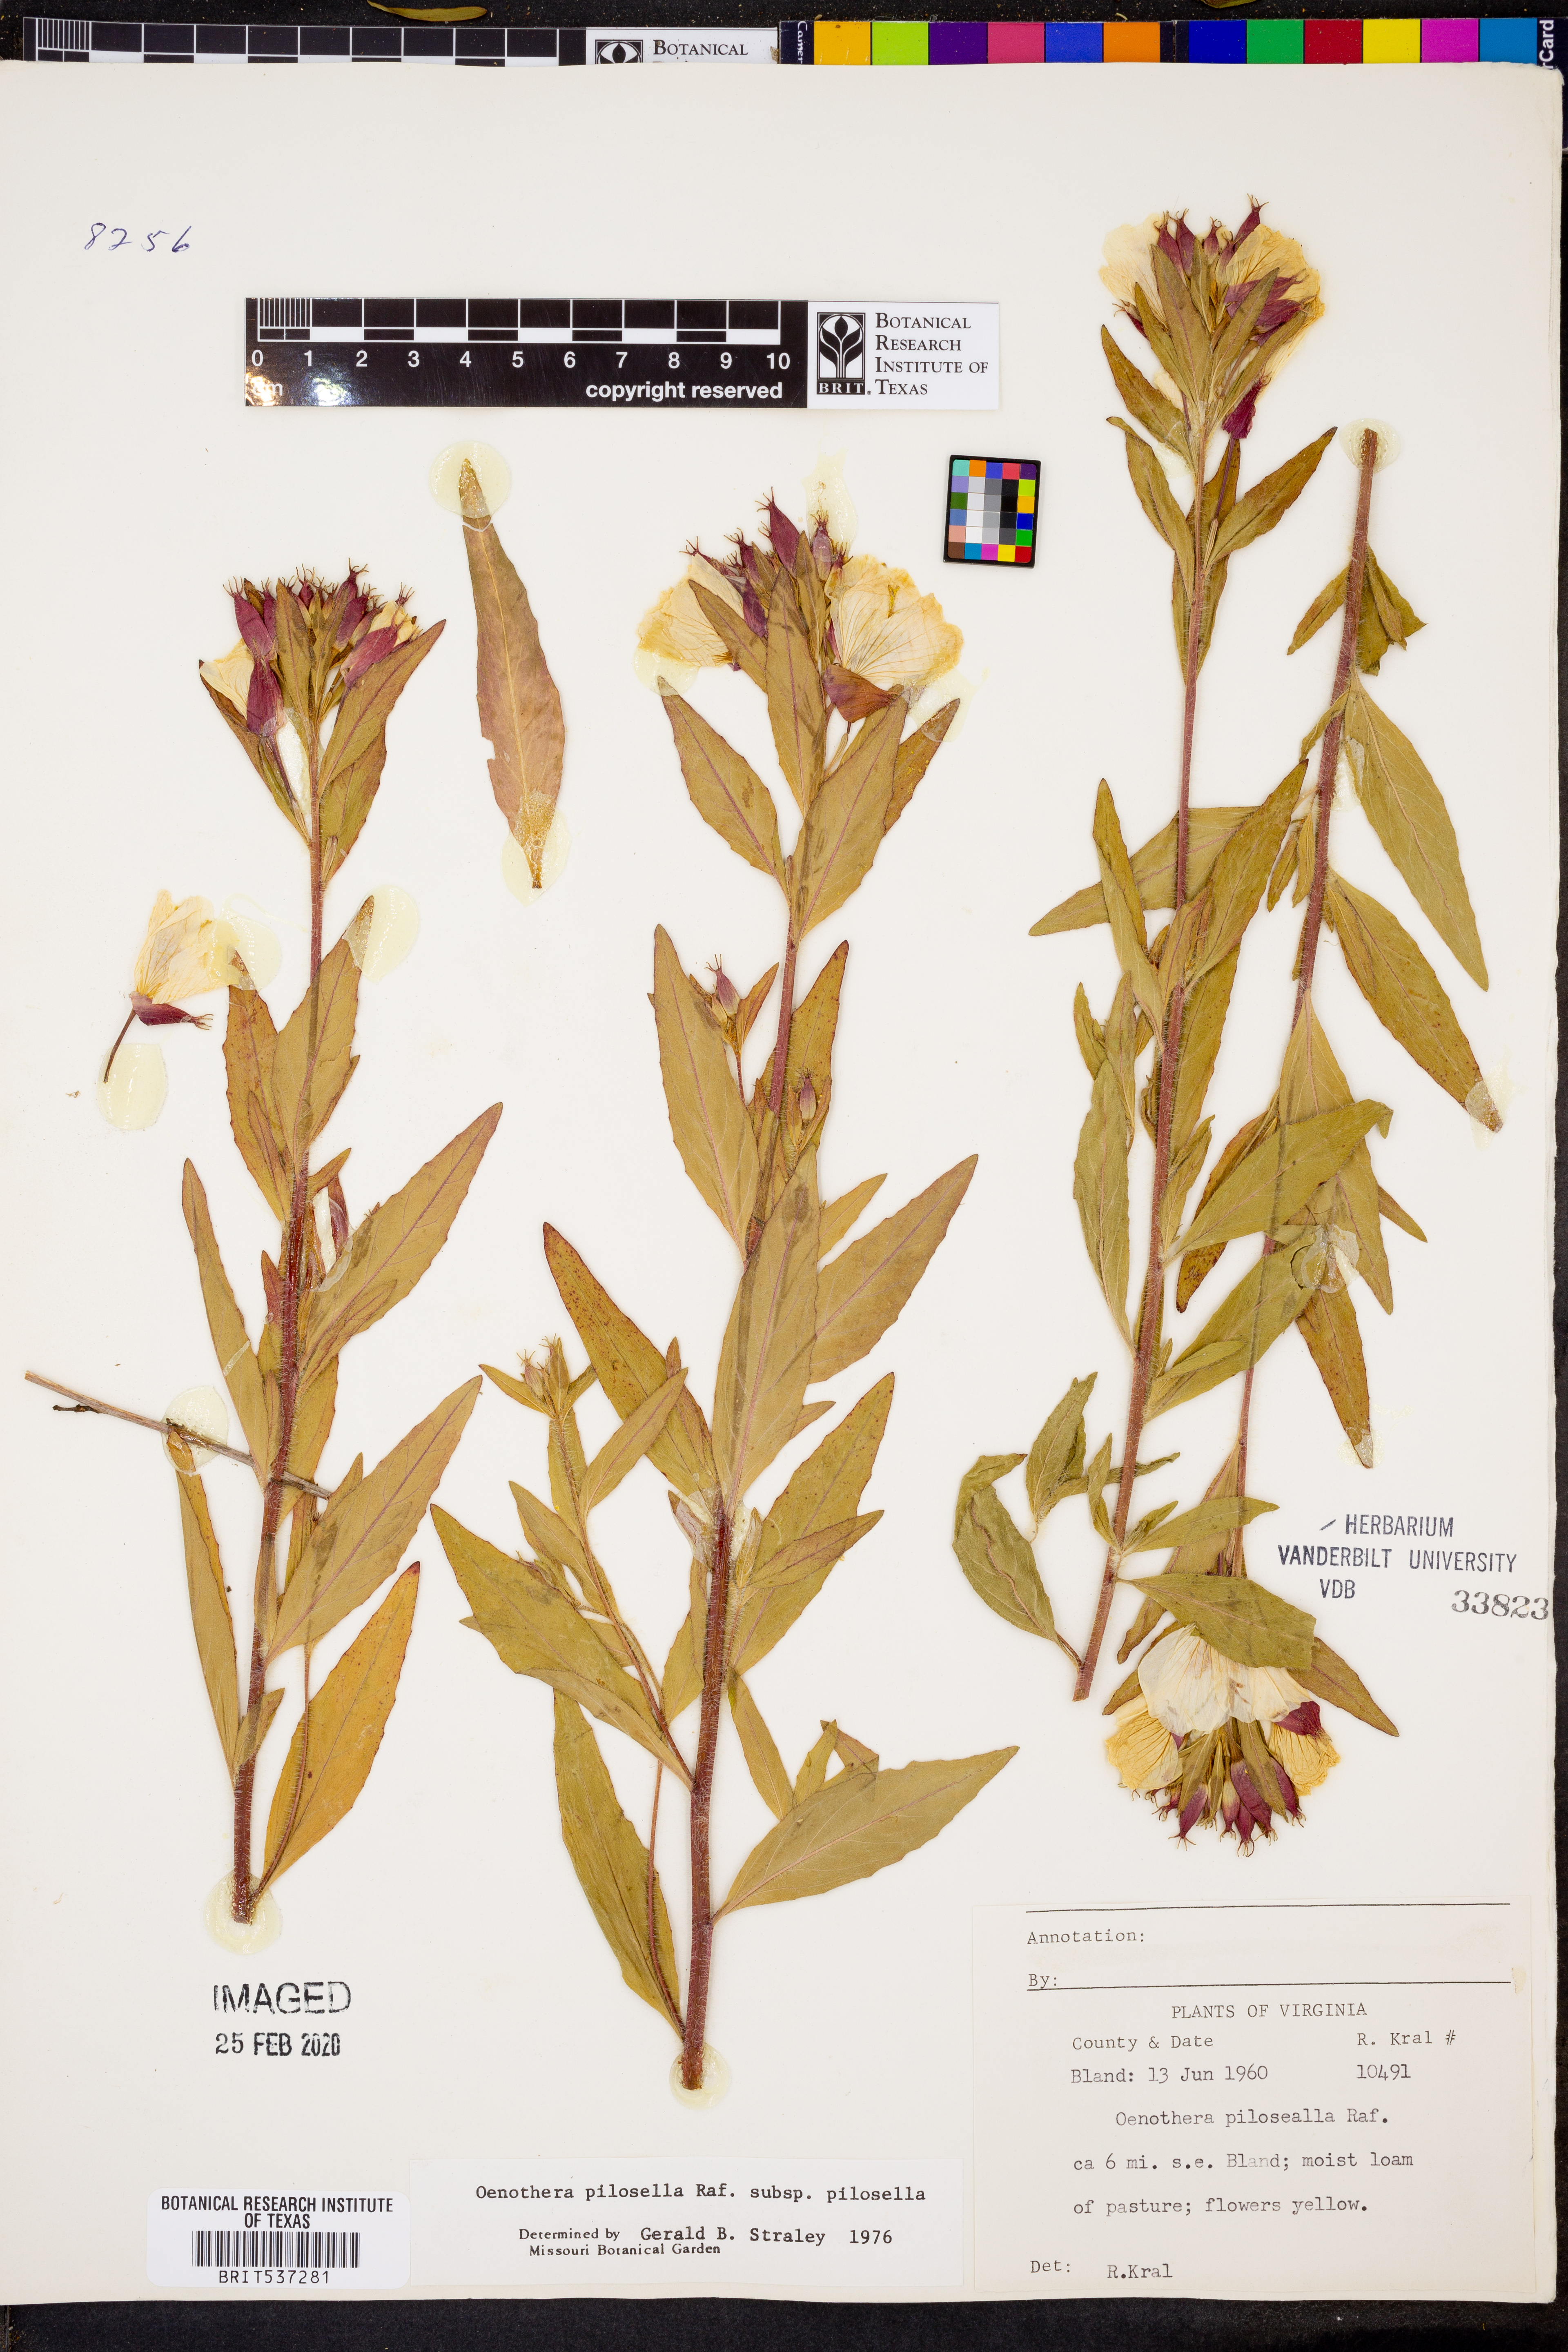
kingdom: Plantae
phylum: Tracheophyta
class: Magnoliopsida
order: Myrtales
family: Onagraceae
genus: Oenothera
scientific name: Oenothera pilosella
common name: Finely-pilose evening-primrose
